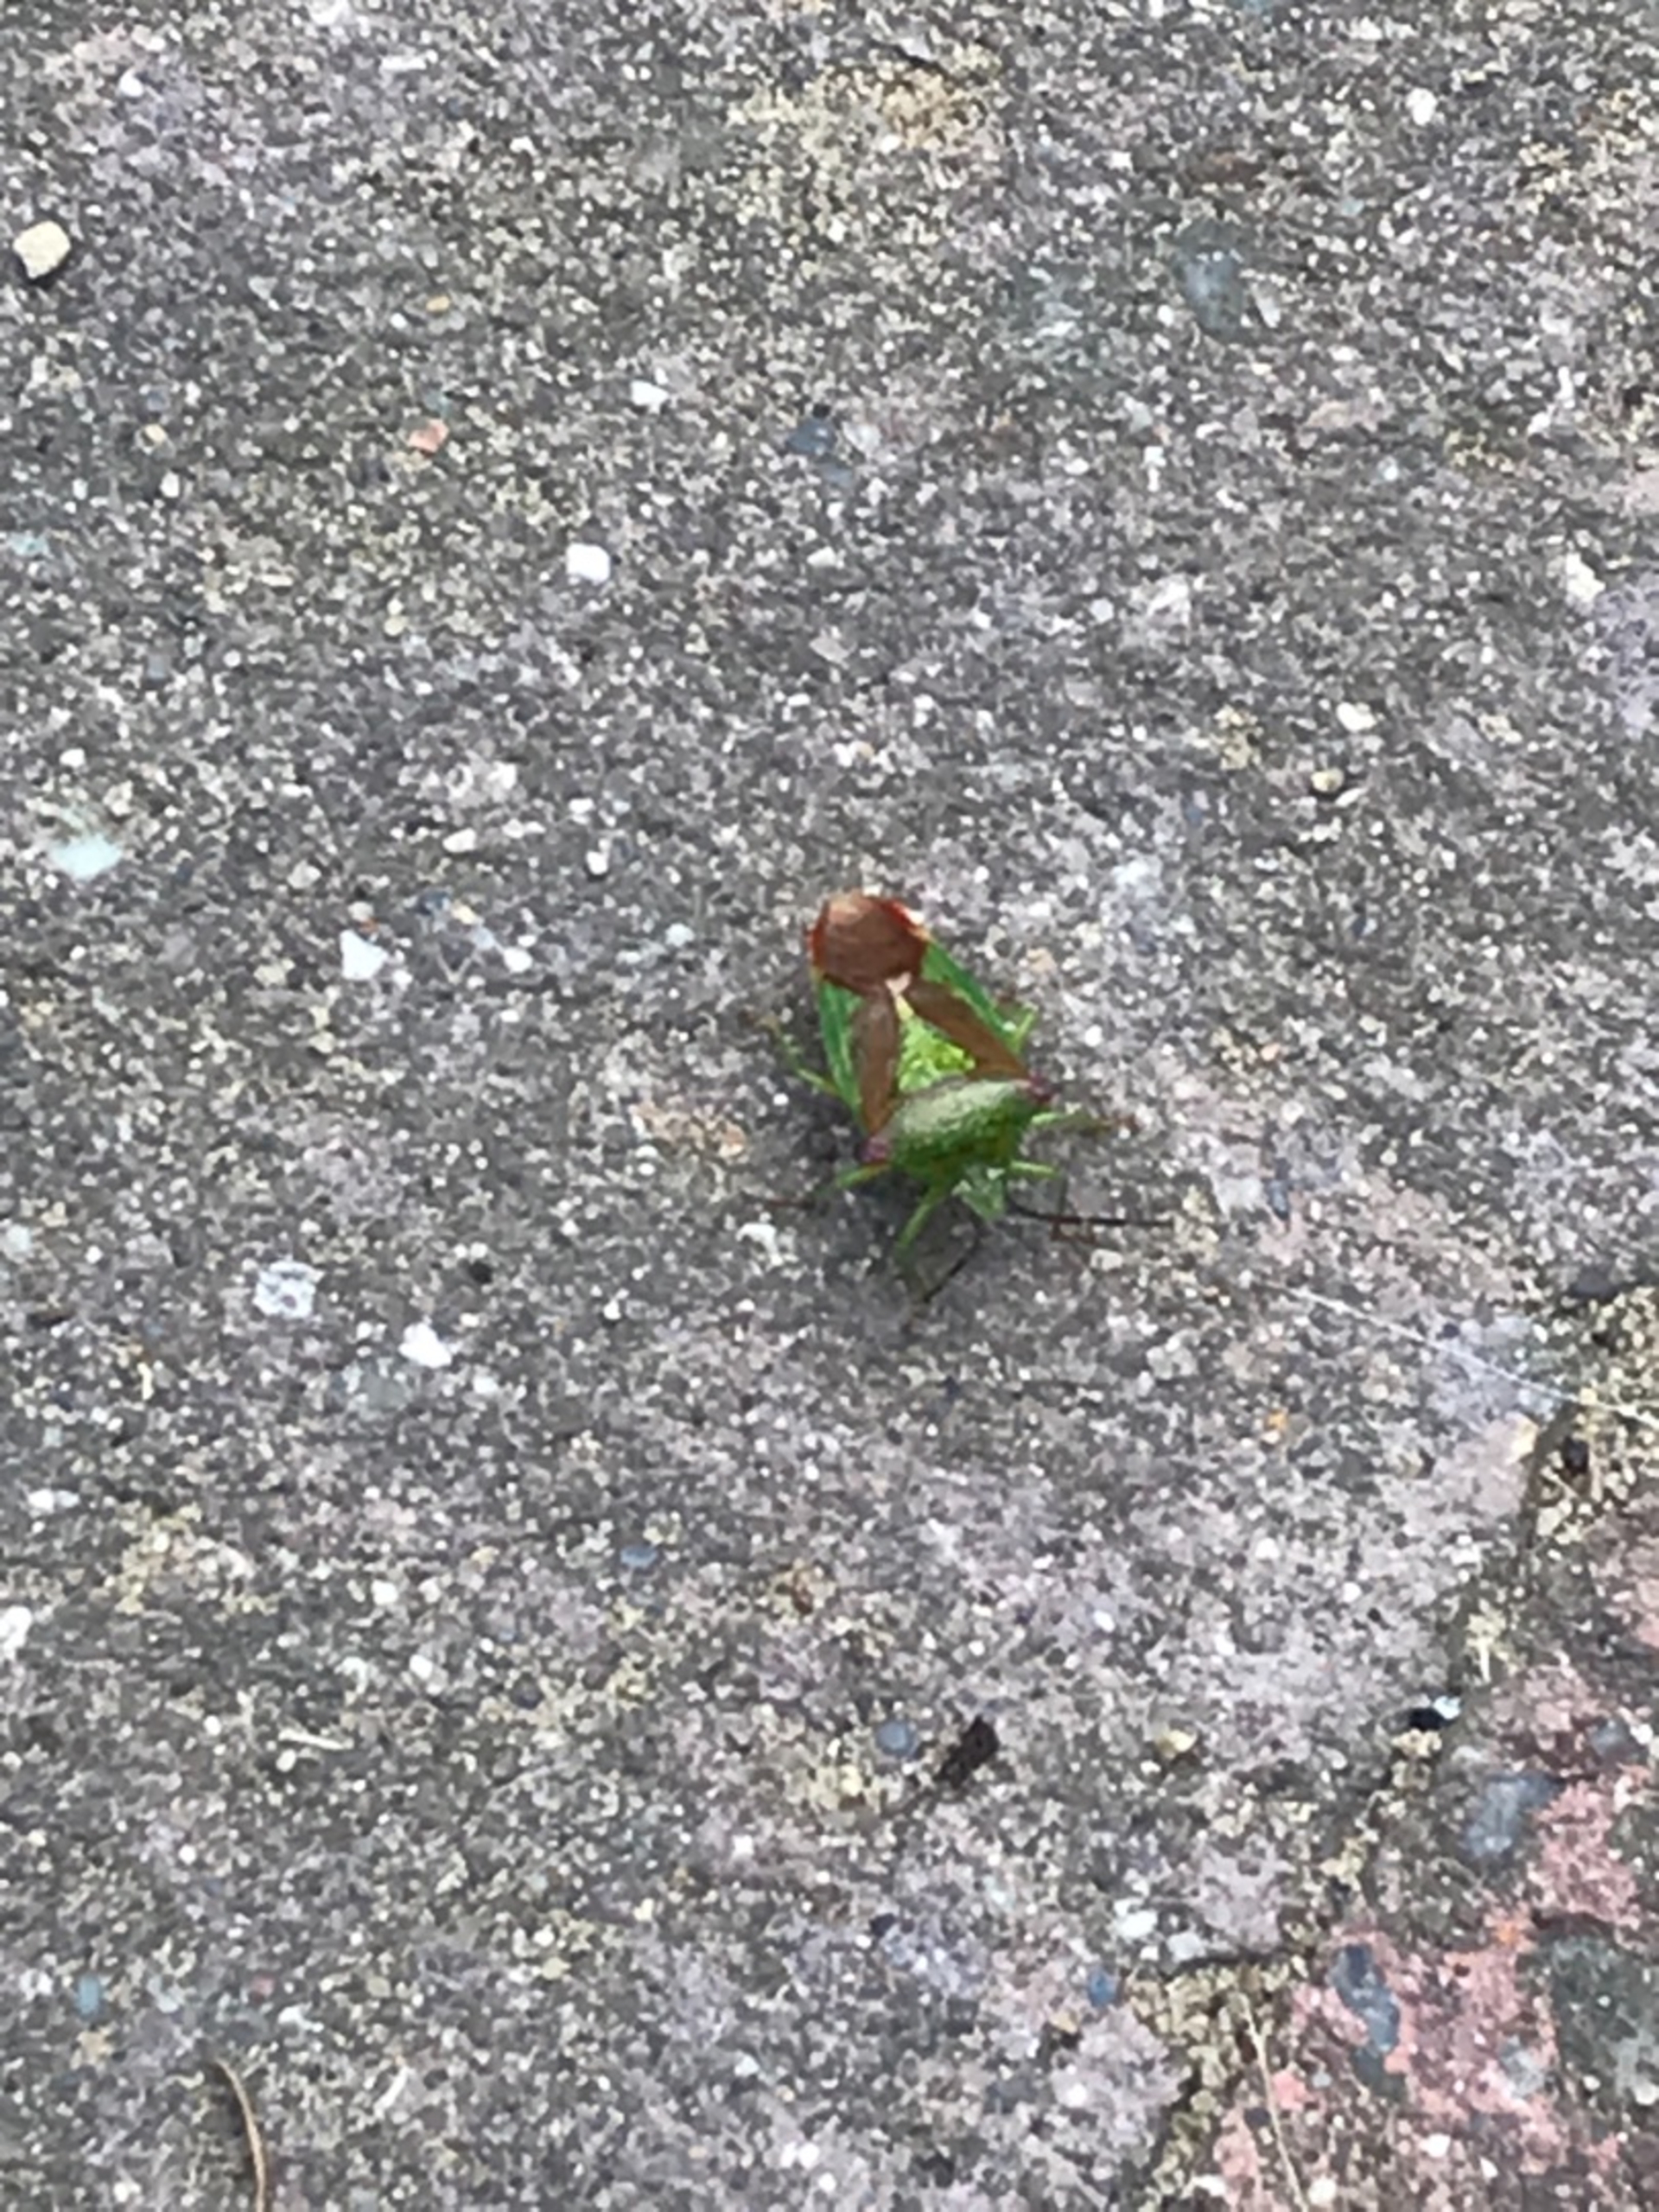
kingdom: Animalia
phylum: Arthropoda
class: Insecta
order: Hemiptera
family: Acanthosomatidae
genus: Acanthosoma
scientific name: Acanthosoma haemorrhoidale
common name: Stor løvtæge
